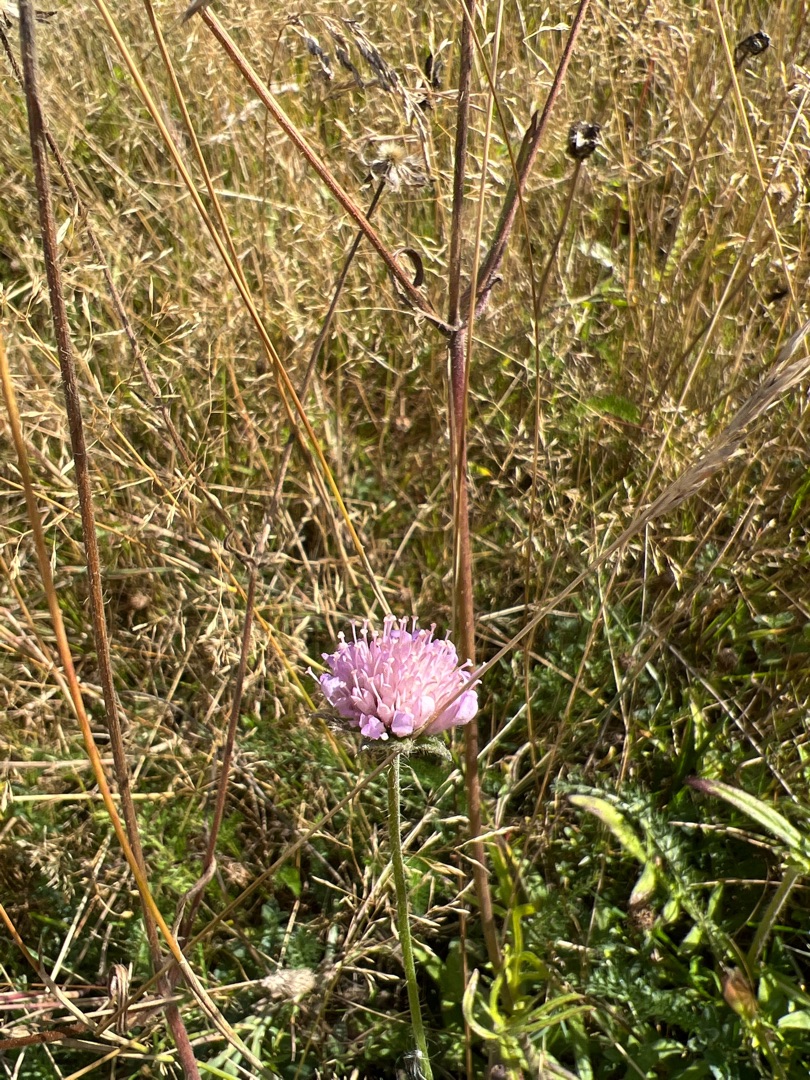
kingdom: Plantae
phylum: Tracheophyta
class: Magnoliopsida
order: Dipsacales
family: Caprifoliaceae
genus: Knautia
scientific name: Knautia arvensis
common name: Blåhat
